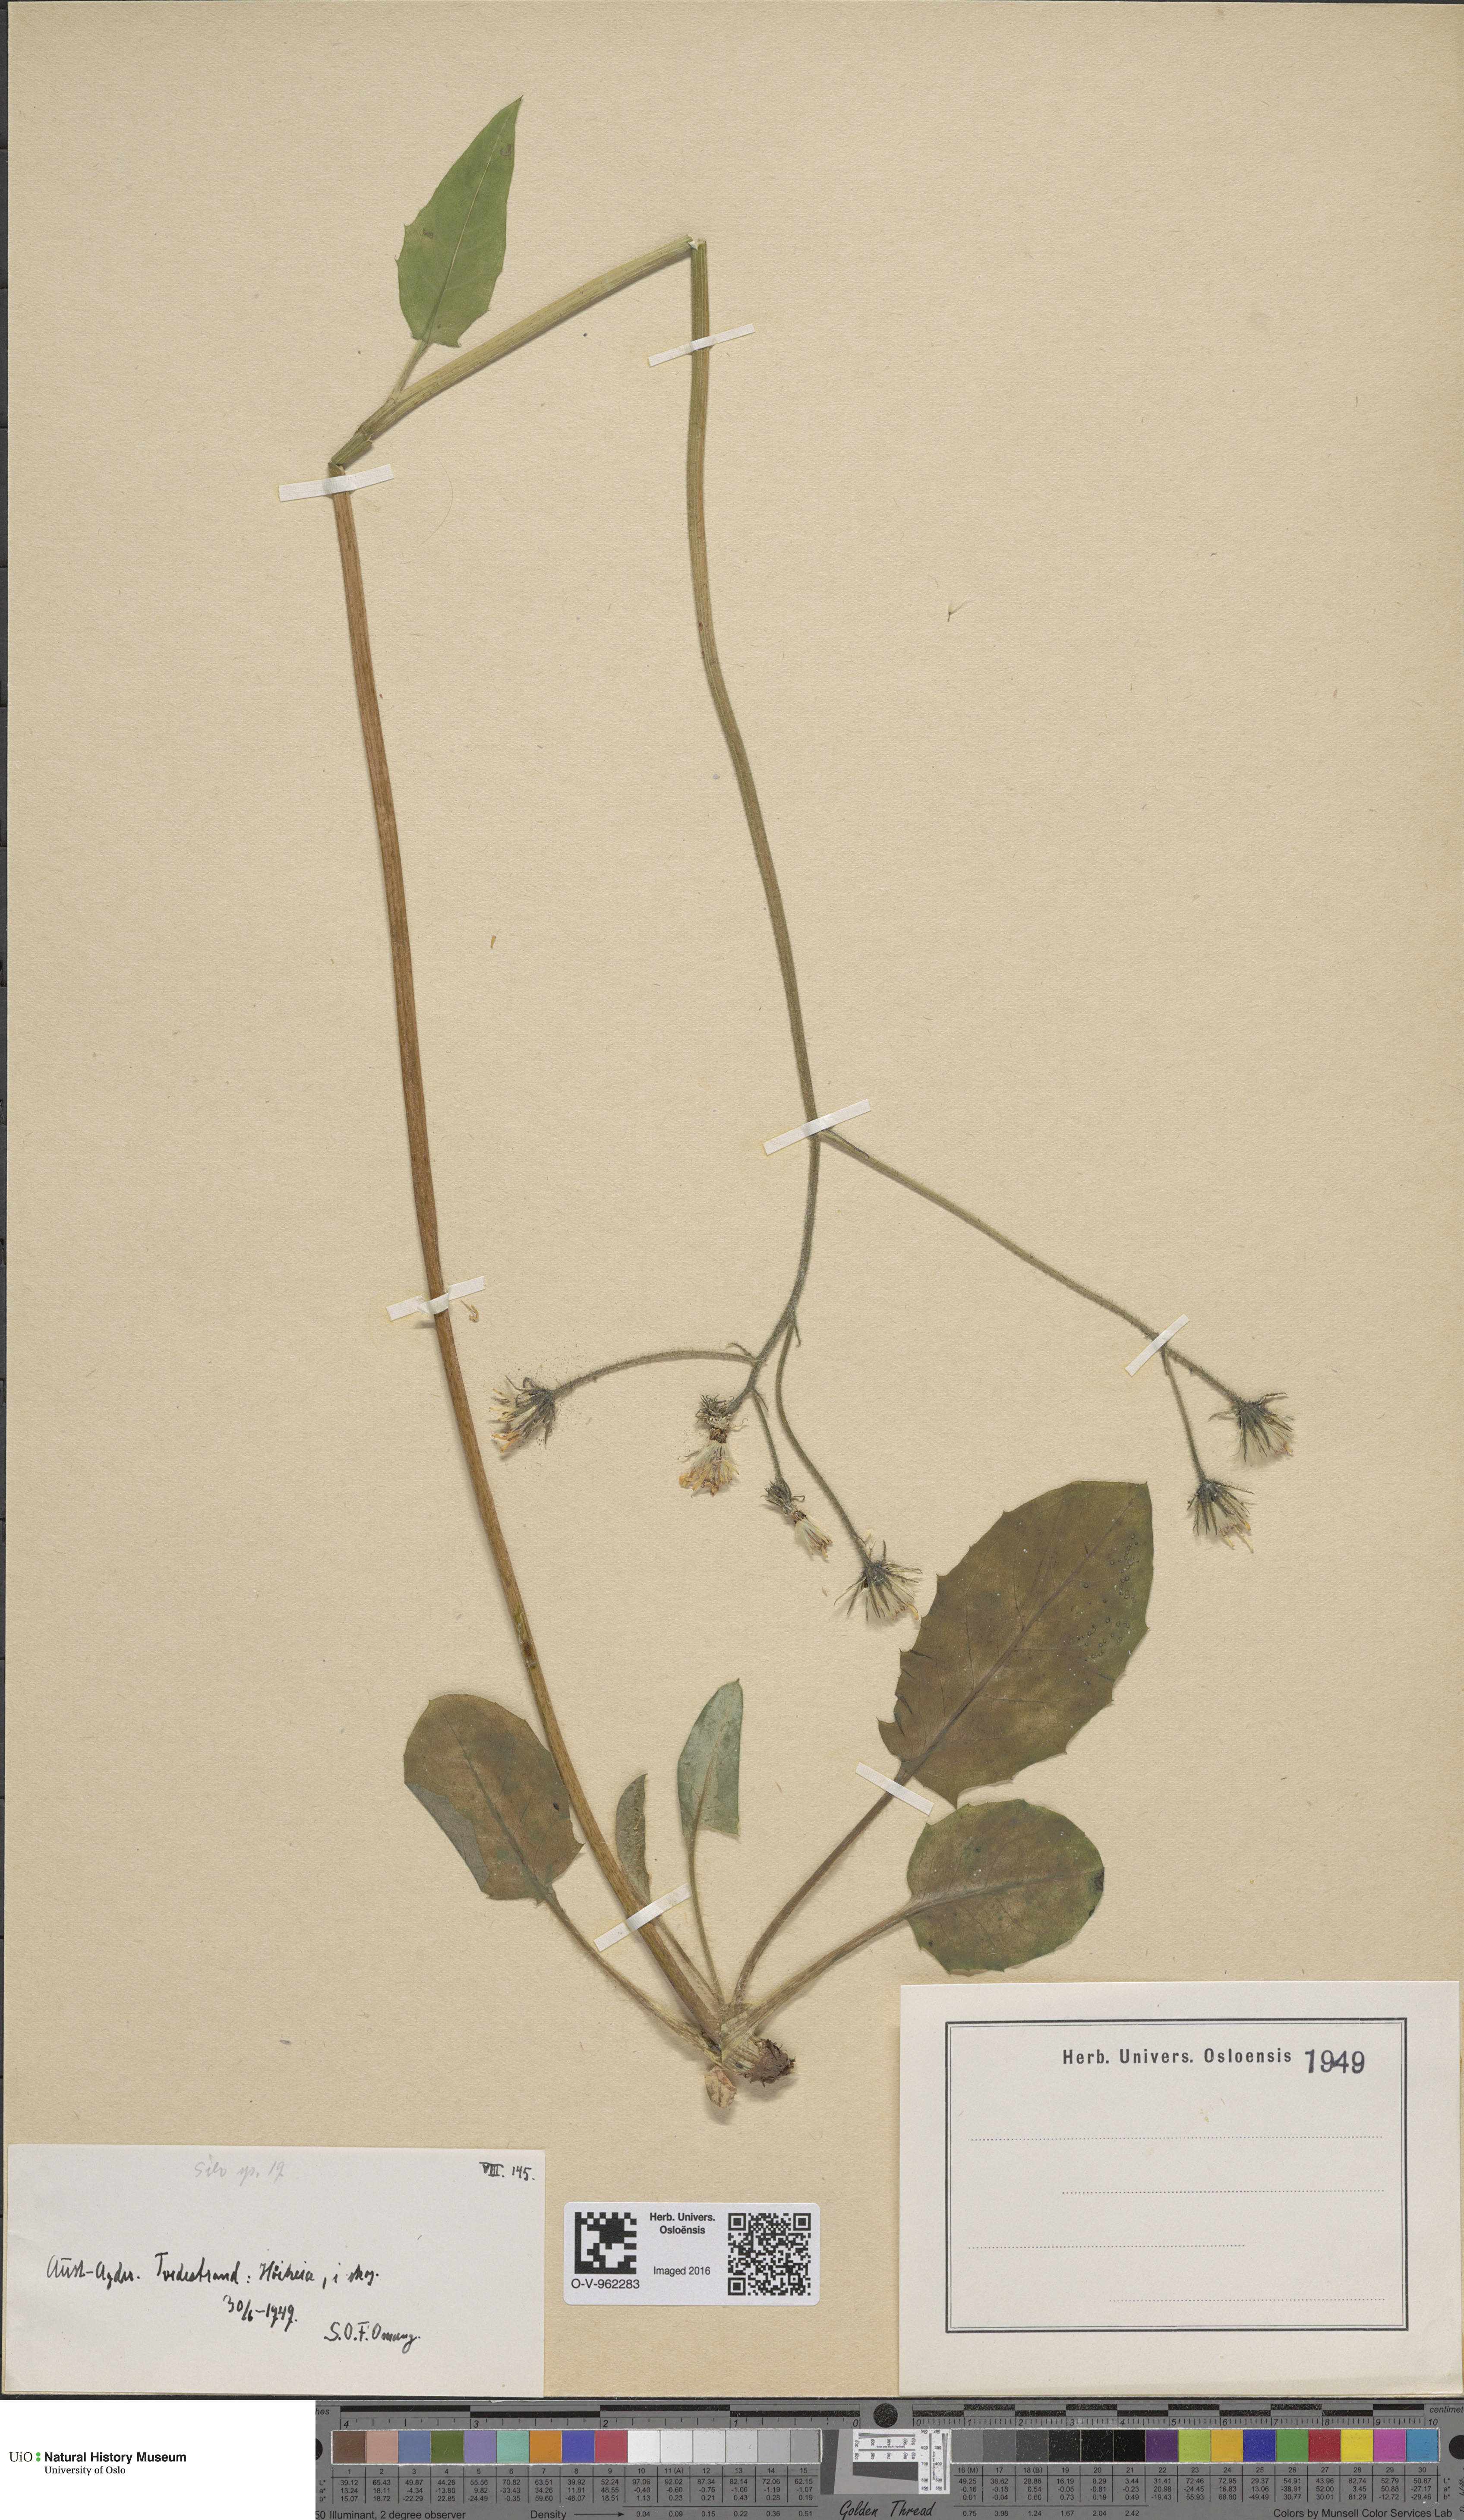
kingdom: Plantae
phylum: Tracheophyta
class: Magnoliopsida
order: Asterales
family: Asteraceae
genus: Hieracium
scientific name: Hieracium
